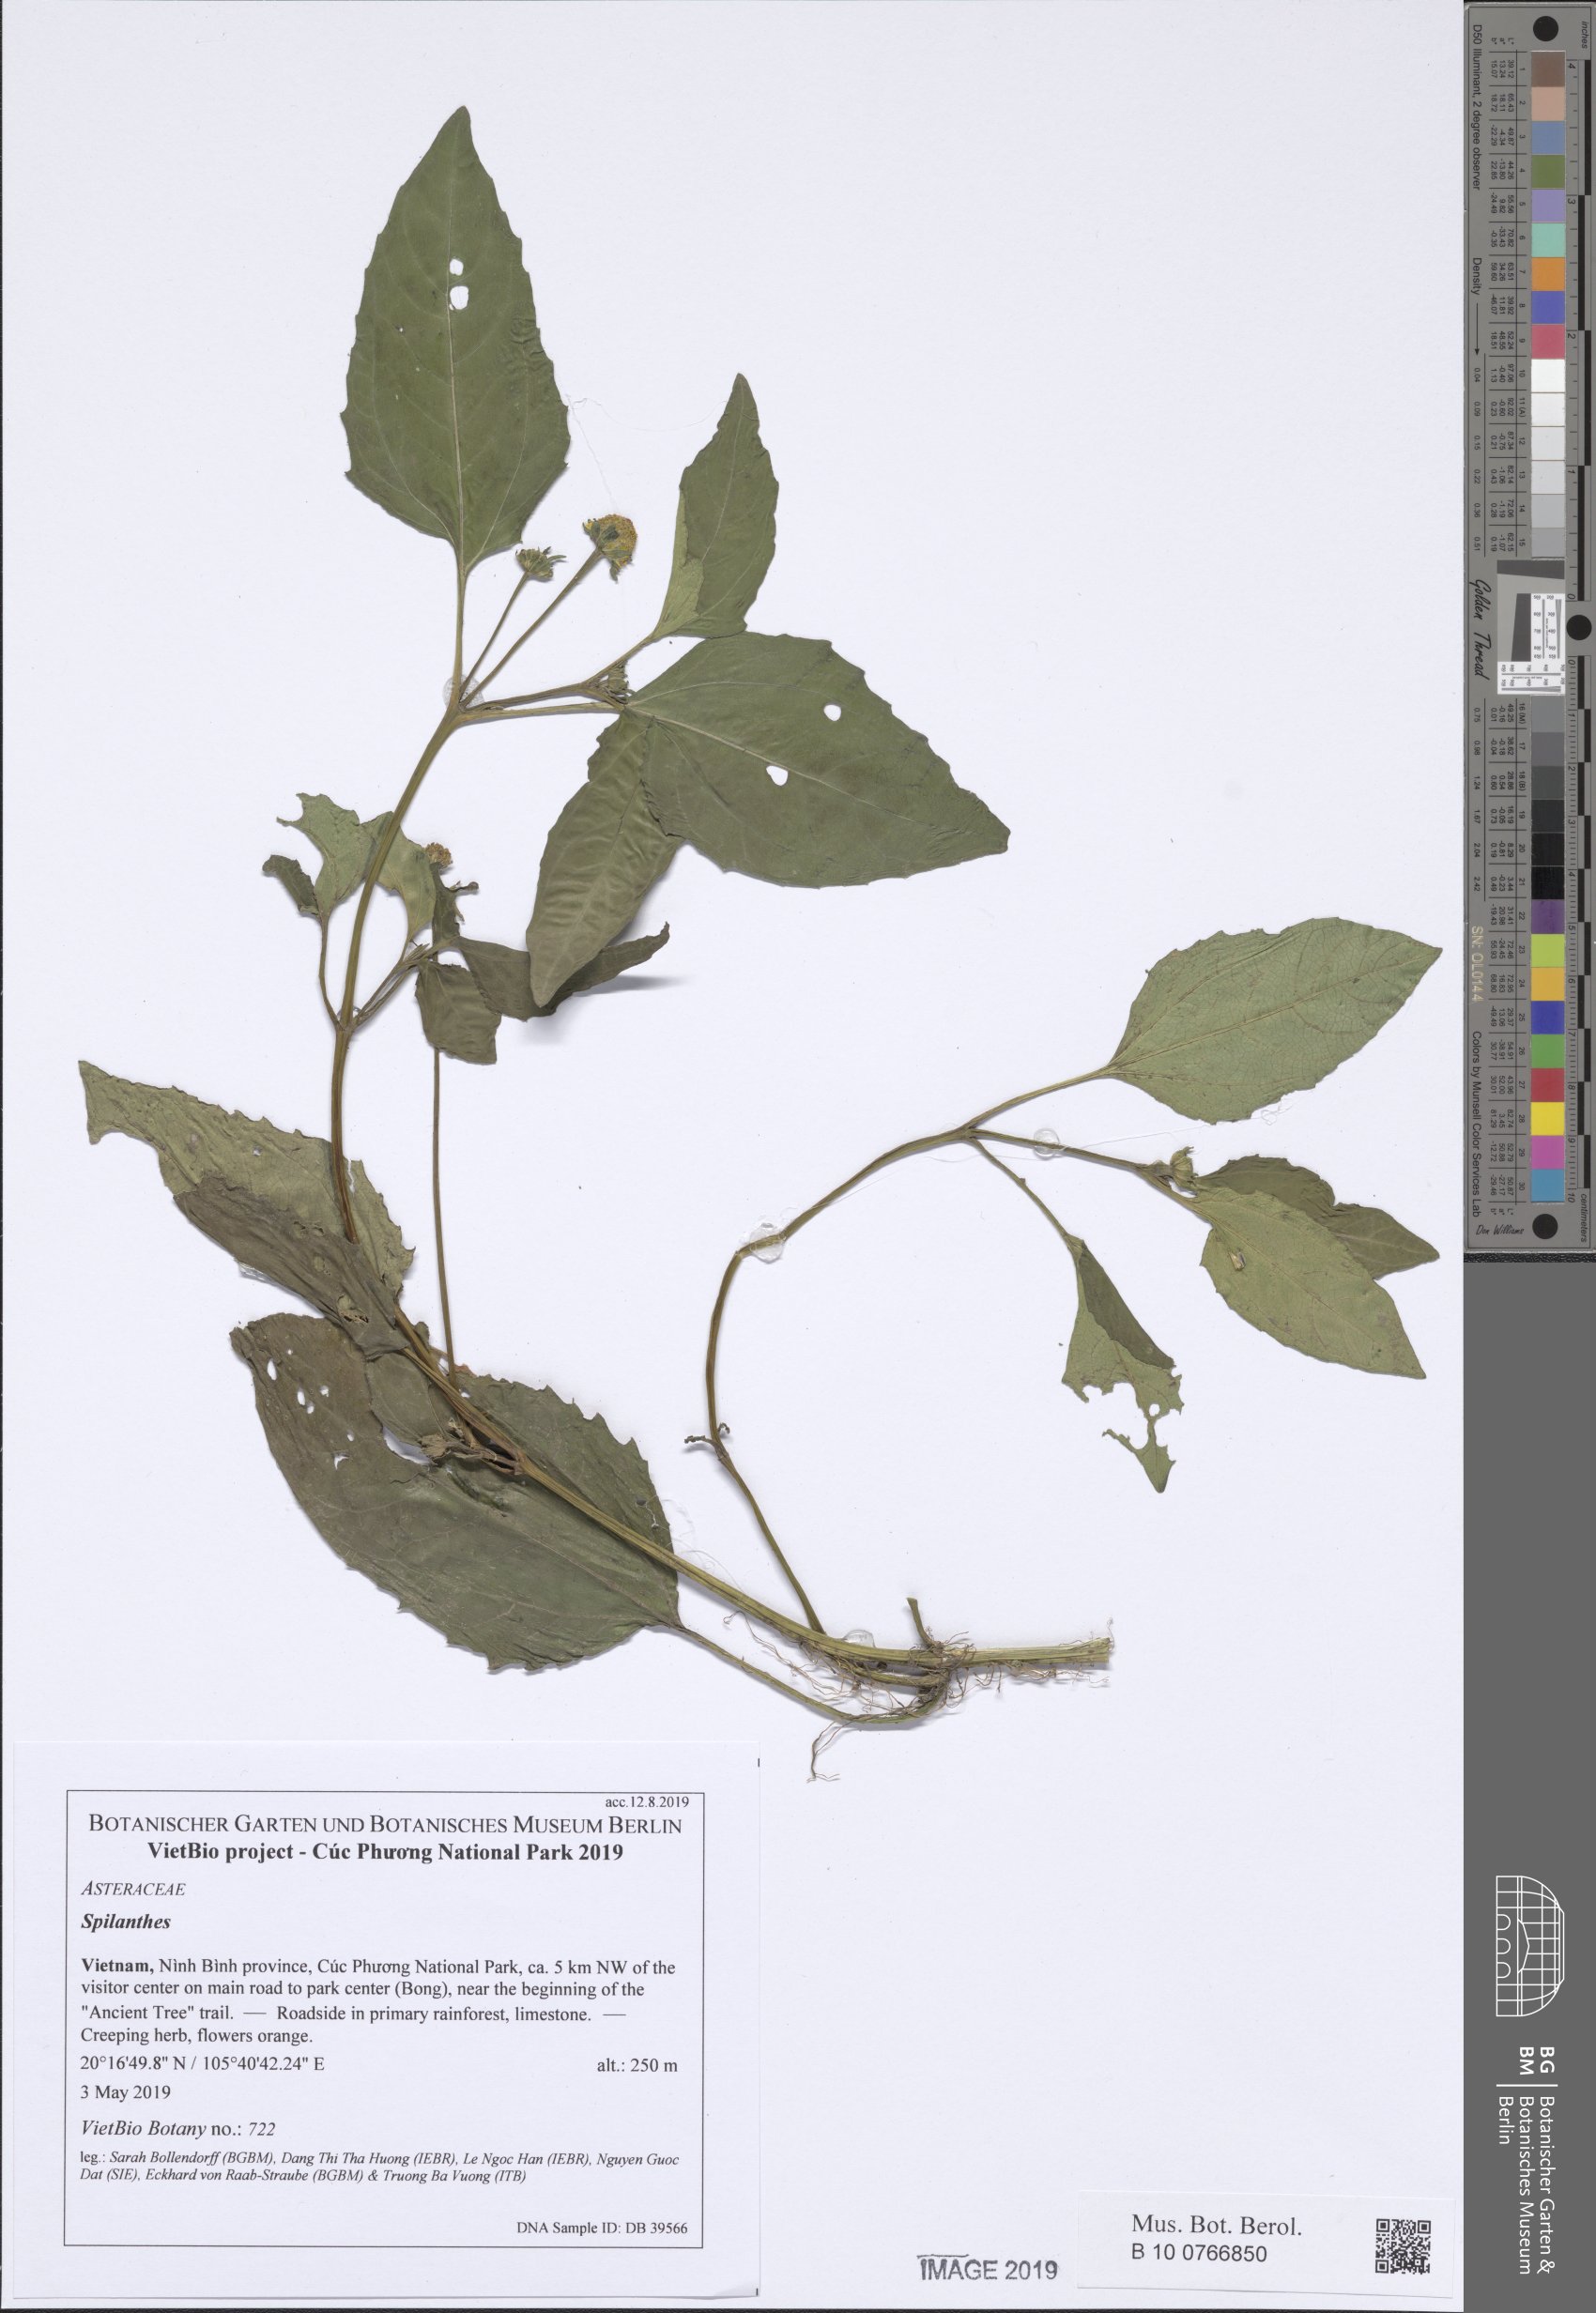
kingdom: Plantae
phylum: Tracheophyta
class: Magnoliopsida
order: Asterales
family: Asteraceae
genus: Acmella
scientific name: Acmella paniculata
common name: Panicled spot flower
